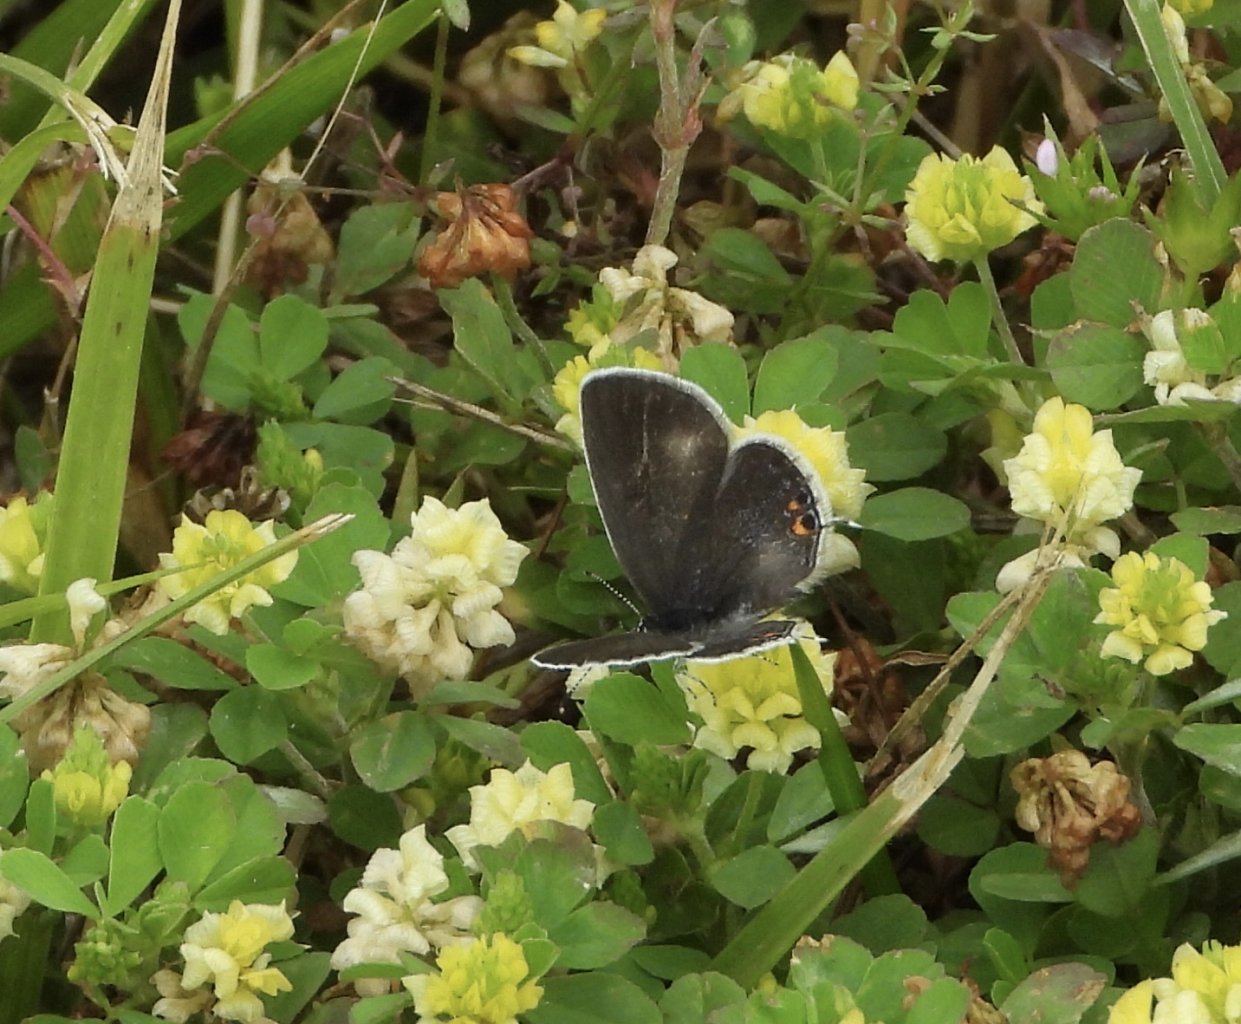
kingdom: Animalia
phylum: Arthropoda
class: Insecta
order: Lepidoptera
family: Lycaenidae
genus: Elkalyce
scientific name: Elkalyce comyntas
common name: Eastern Tailed-Blue
